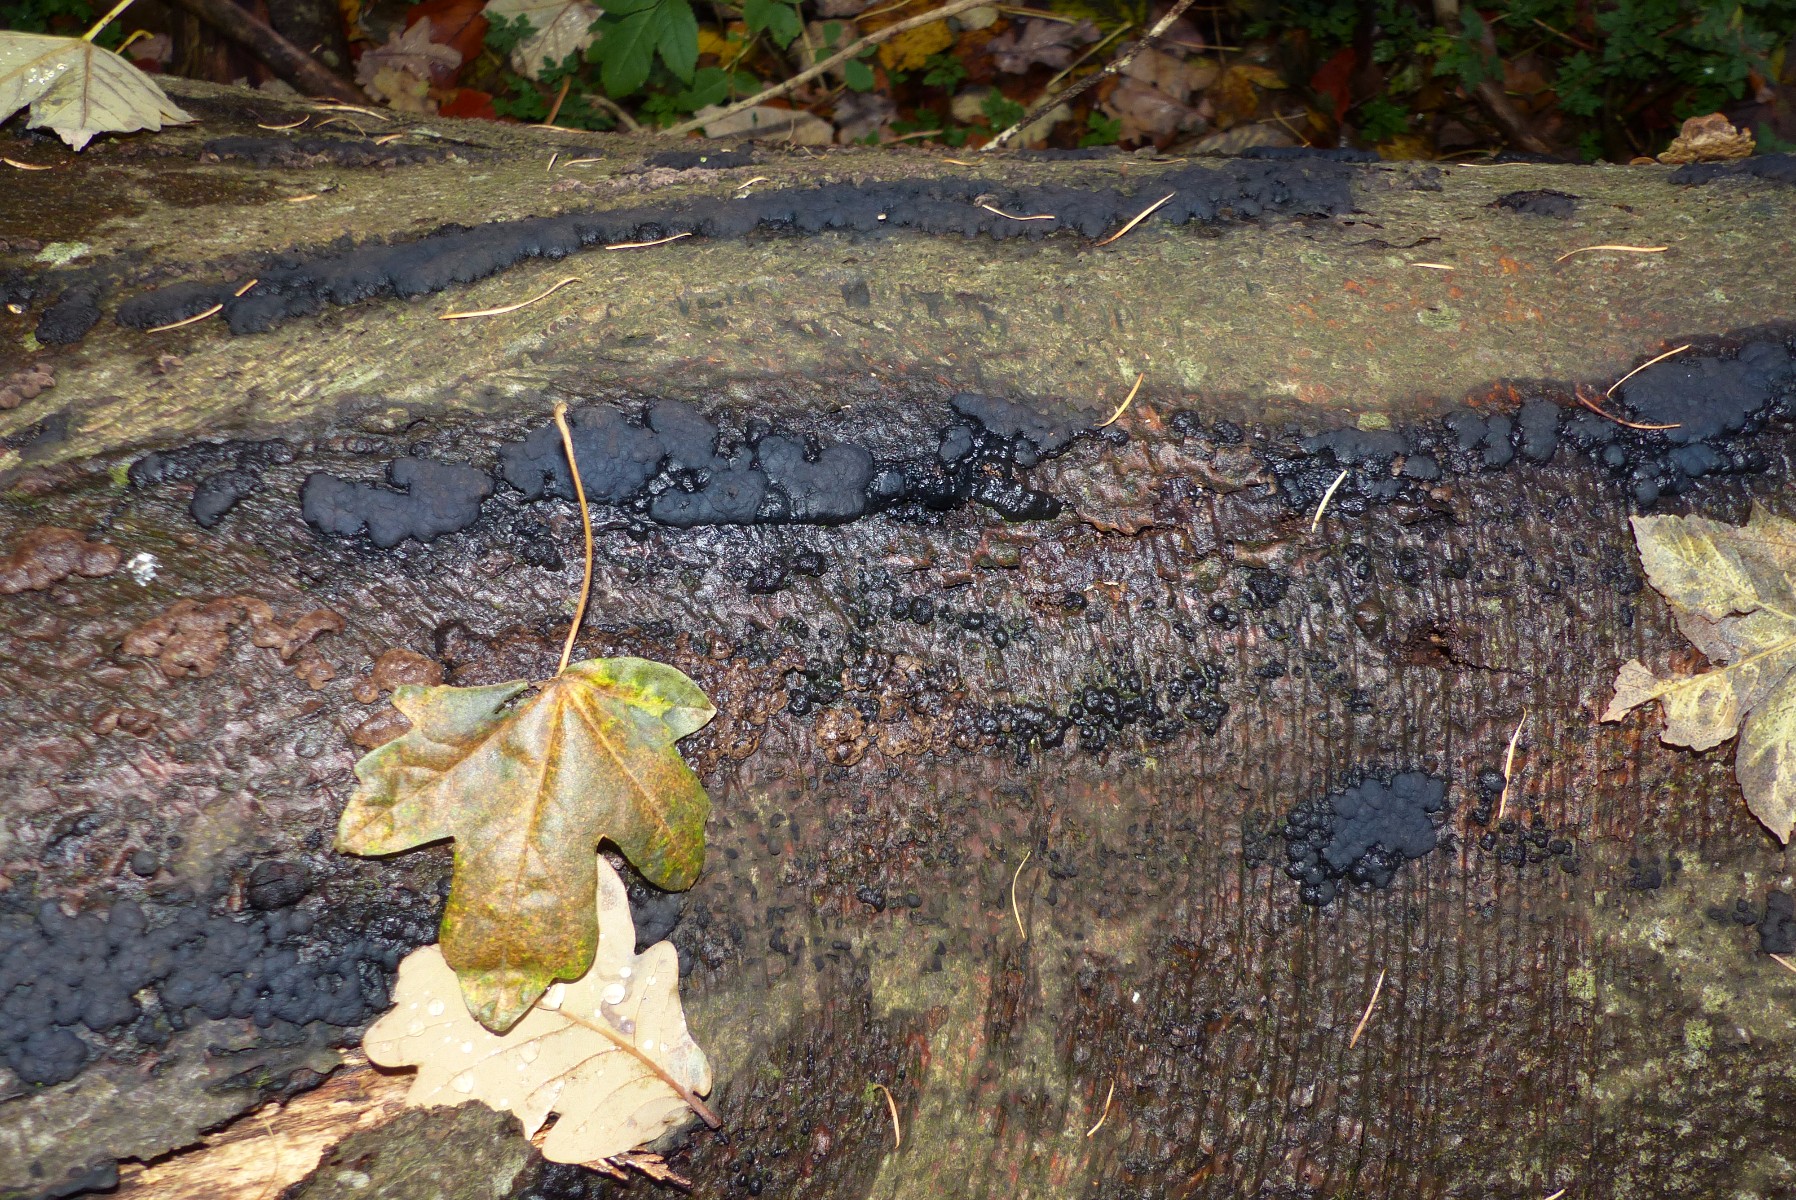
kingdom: Fungi
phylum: Ascomycota
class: Sordariomycetes
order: Xylariales
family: Hypoxylaceae
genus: Jackrogersella
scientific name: Jackrogersella cohaerens
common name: sammenflydende kulbær
